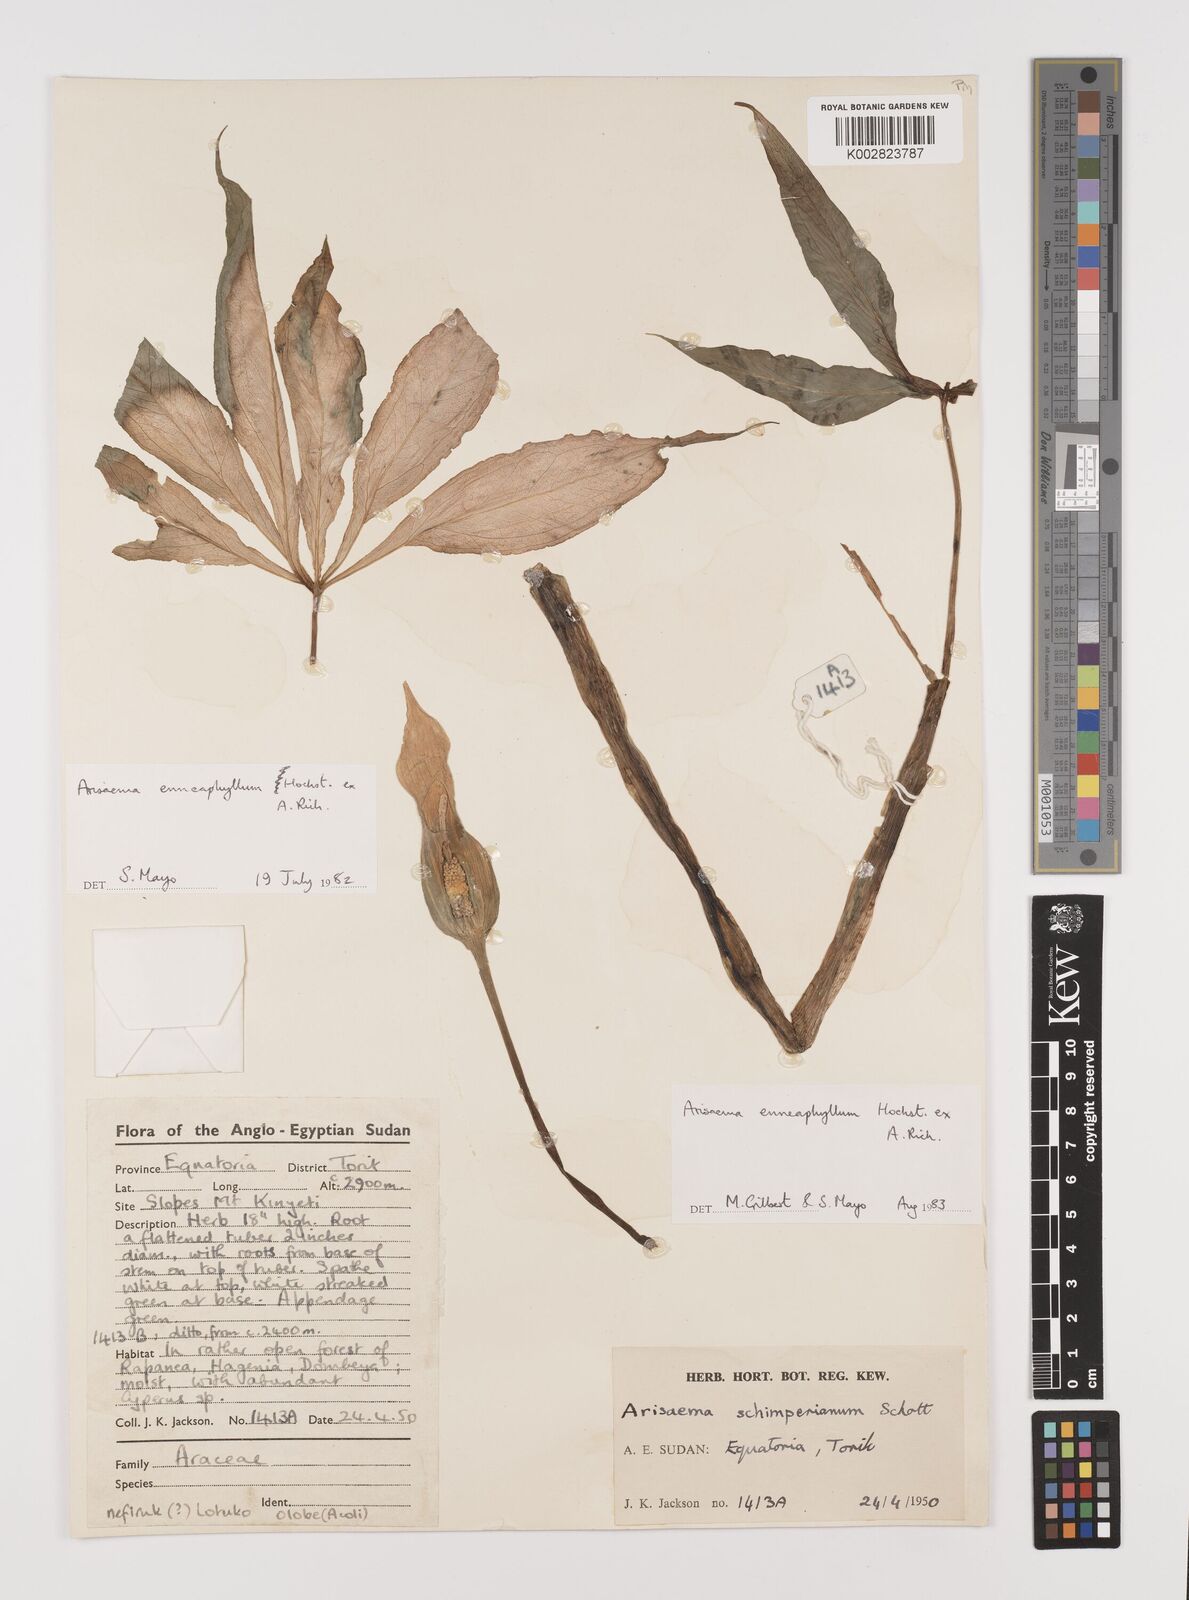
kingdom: Plantae
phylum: Tracheophyta
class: Liliopsida
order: Alismatales
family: Araceae
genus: Arisaema
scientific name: Arisaema enneaphyllum
